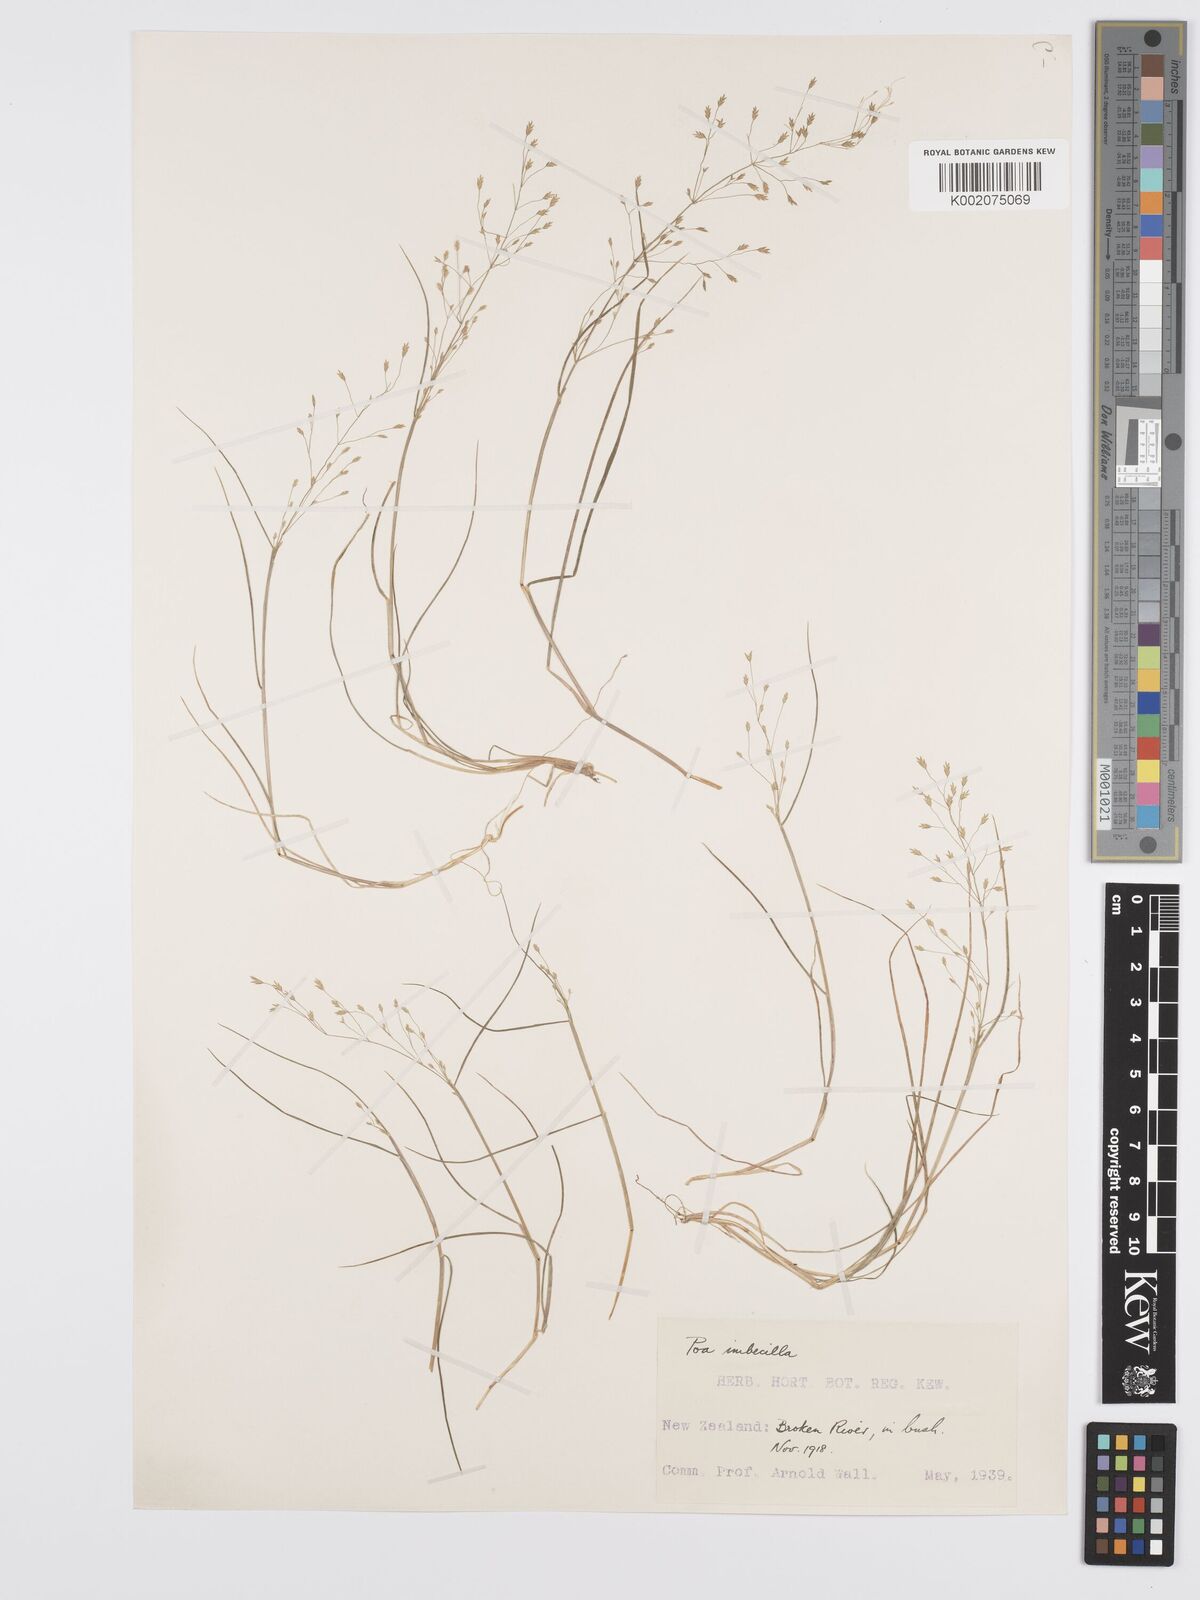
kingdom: Plantae
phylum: Tracheophyta
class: Liliopsida
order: Poales
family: Poaceae
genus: Poa
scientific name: Poa breviglumis
